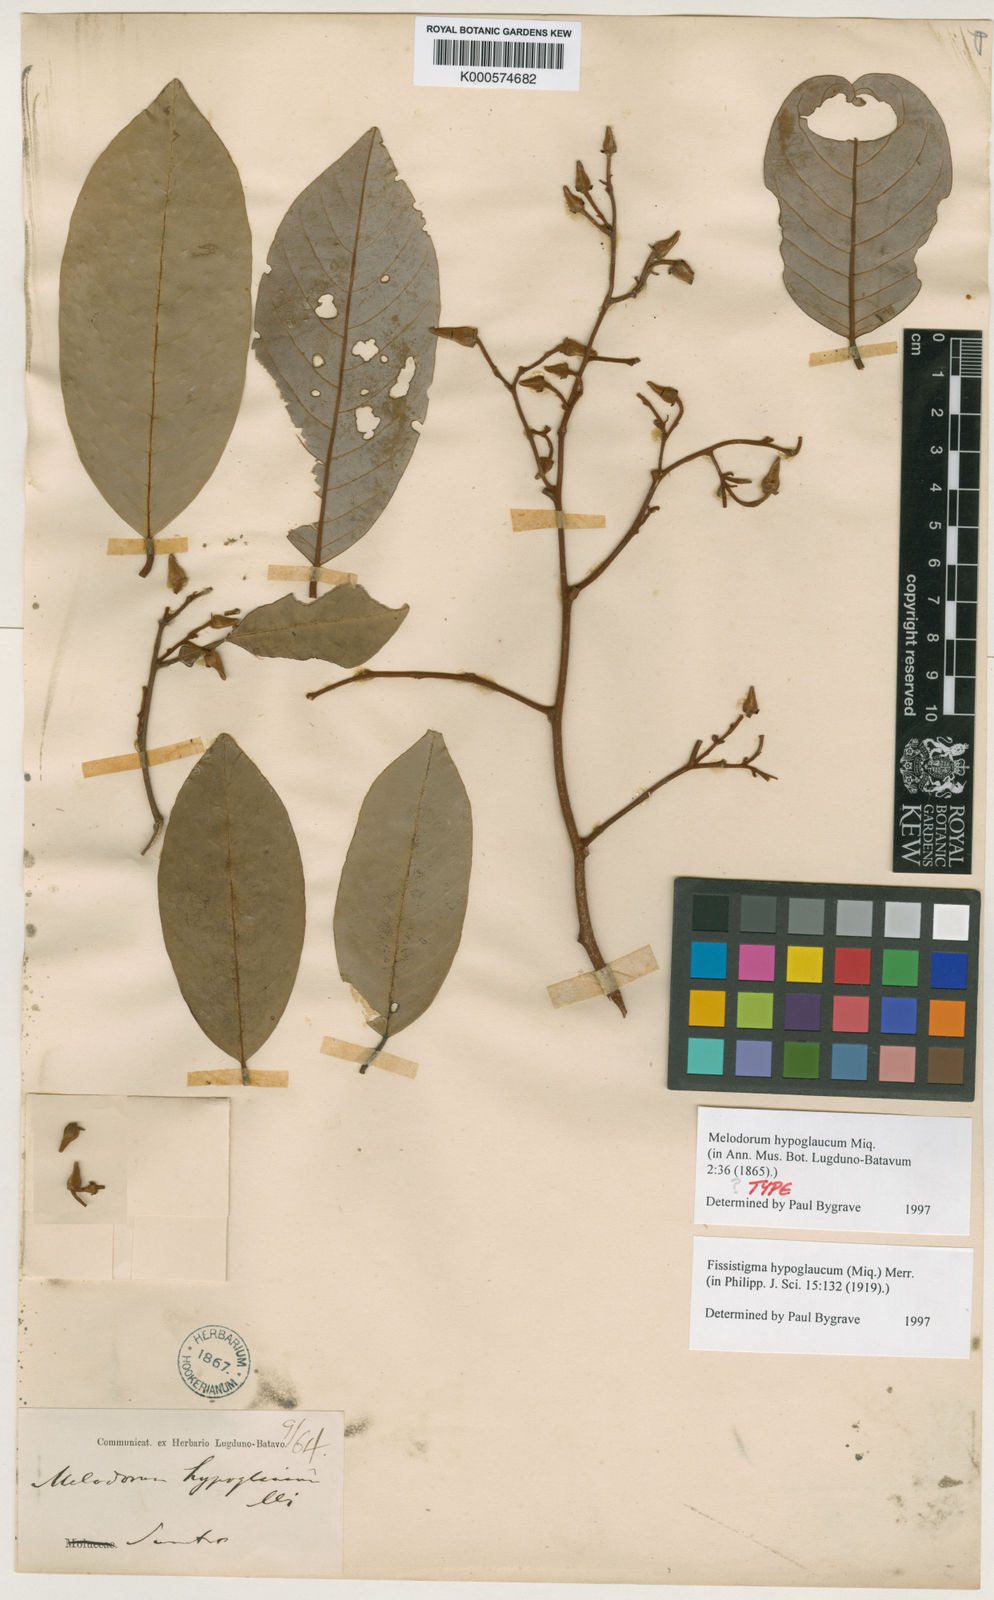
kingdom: Plantae
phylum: Tracheophyta
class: Magnoliopsida
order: Magnoliales
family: Annonaceae
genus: Fissistigma
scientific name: Fissistigma hypoglaucum
